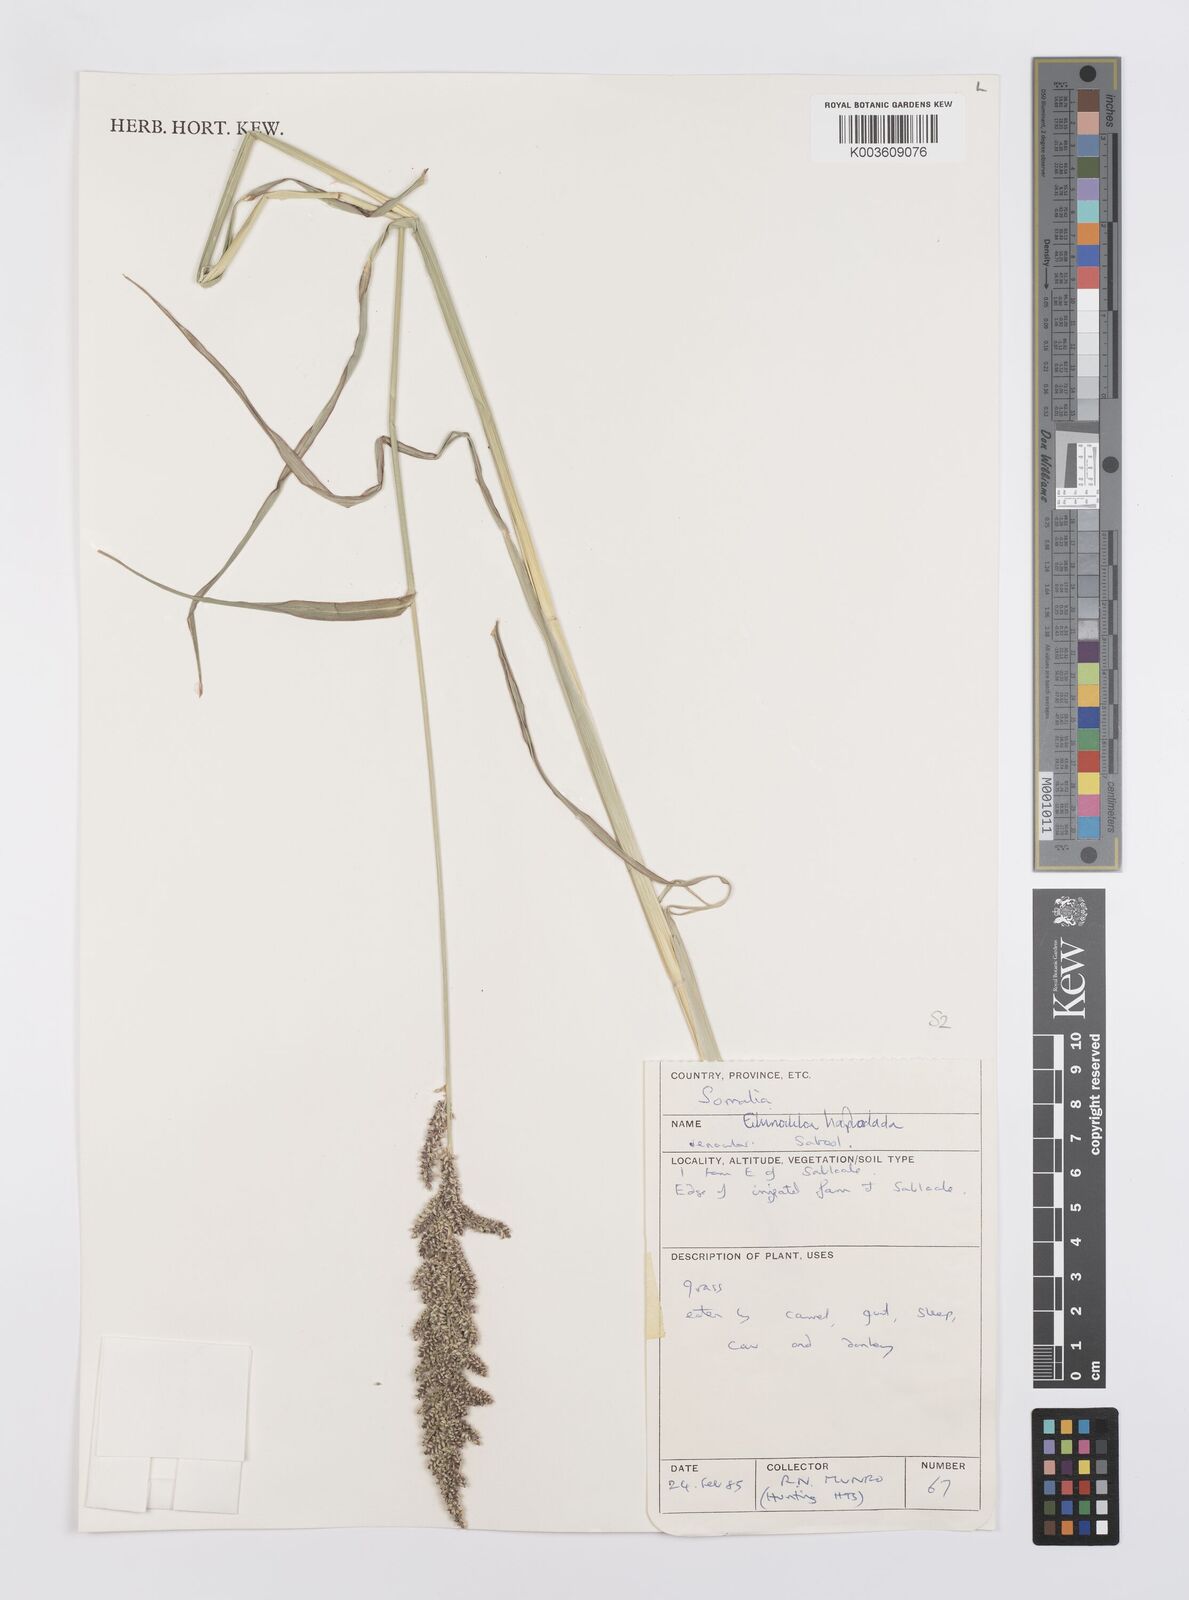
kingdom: Plantae
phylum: Tracheophyta
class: Liliopsida
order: Poales
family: Poaceae
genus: Echinochloa
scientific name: Echinochloa haploclada
